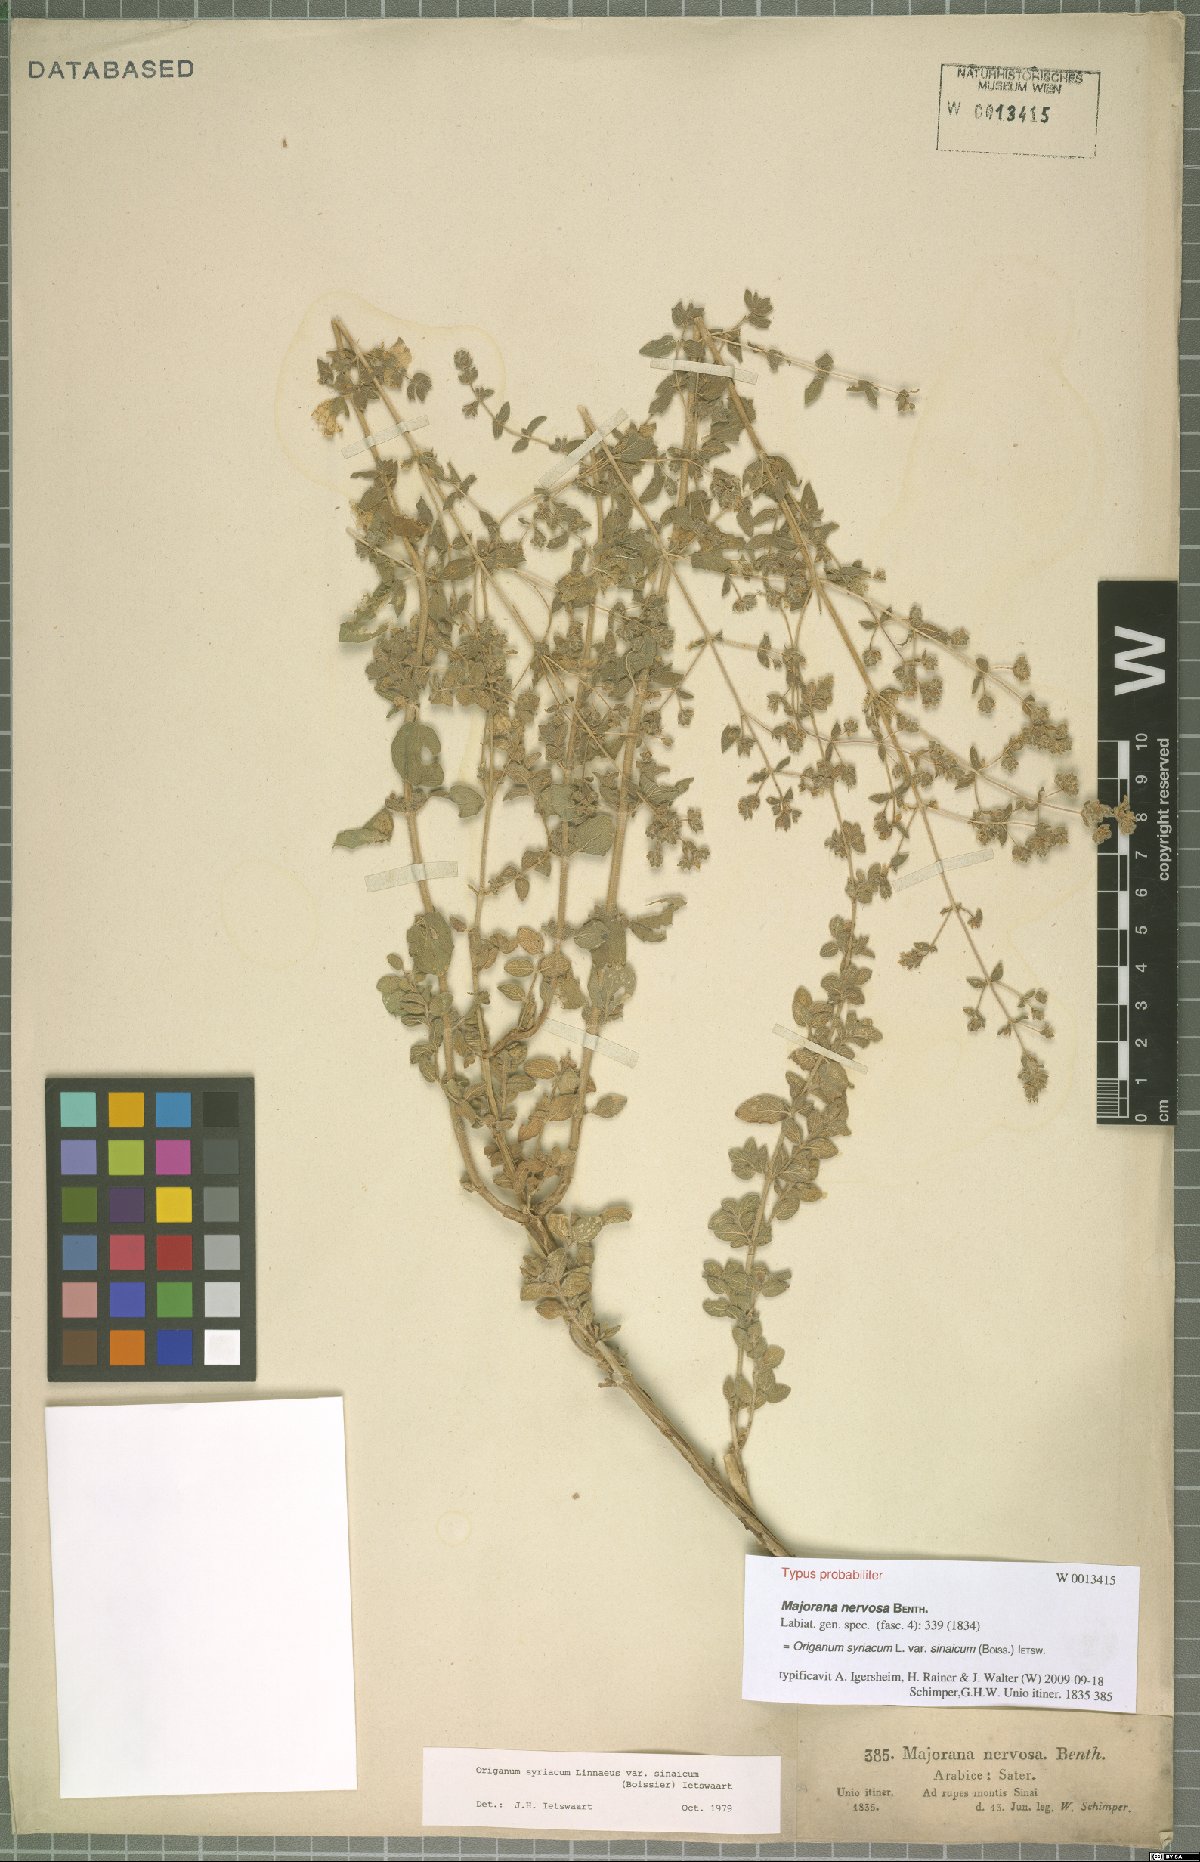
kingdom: Plantae
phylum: Tracheophyta
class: Magnoliopsida
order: Lamiales
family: Lamiaceae
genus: Origanum
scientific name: Origanum syriacum
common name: Biblical-hyssop
